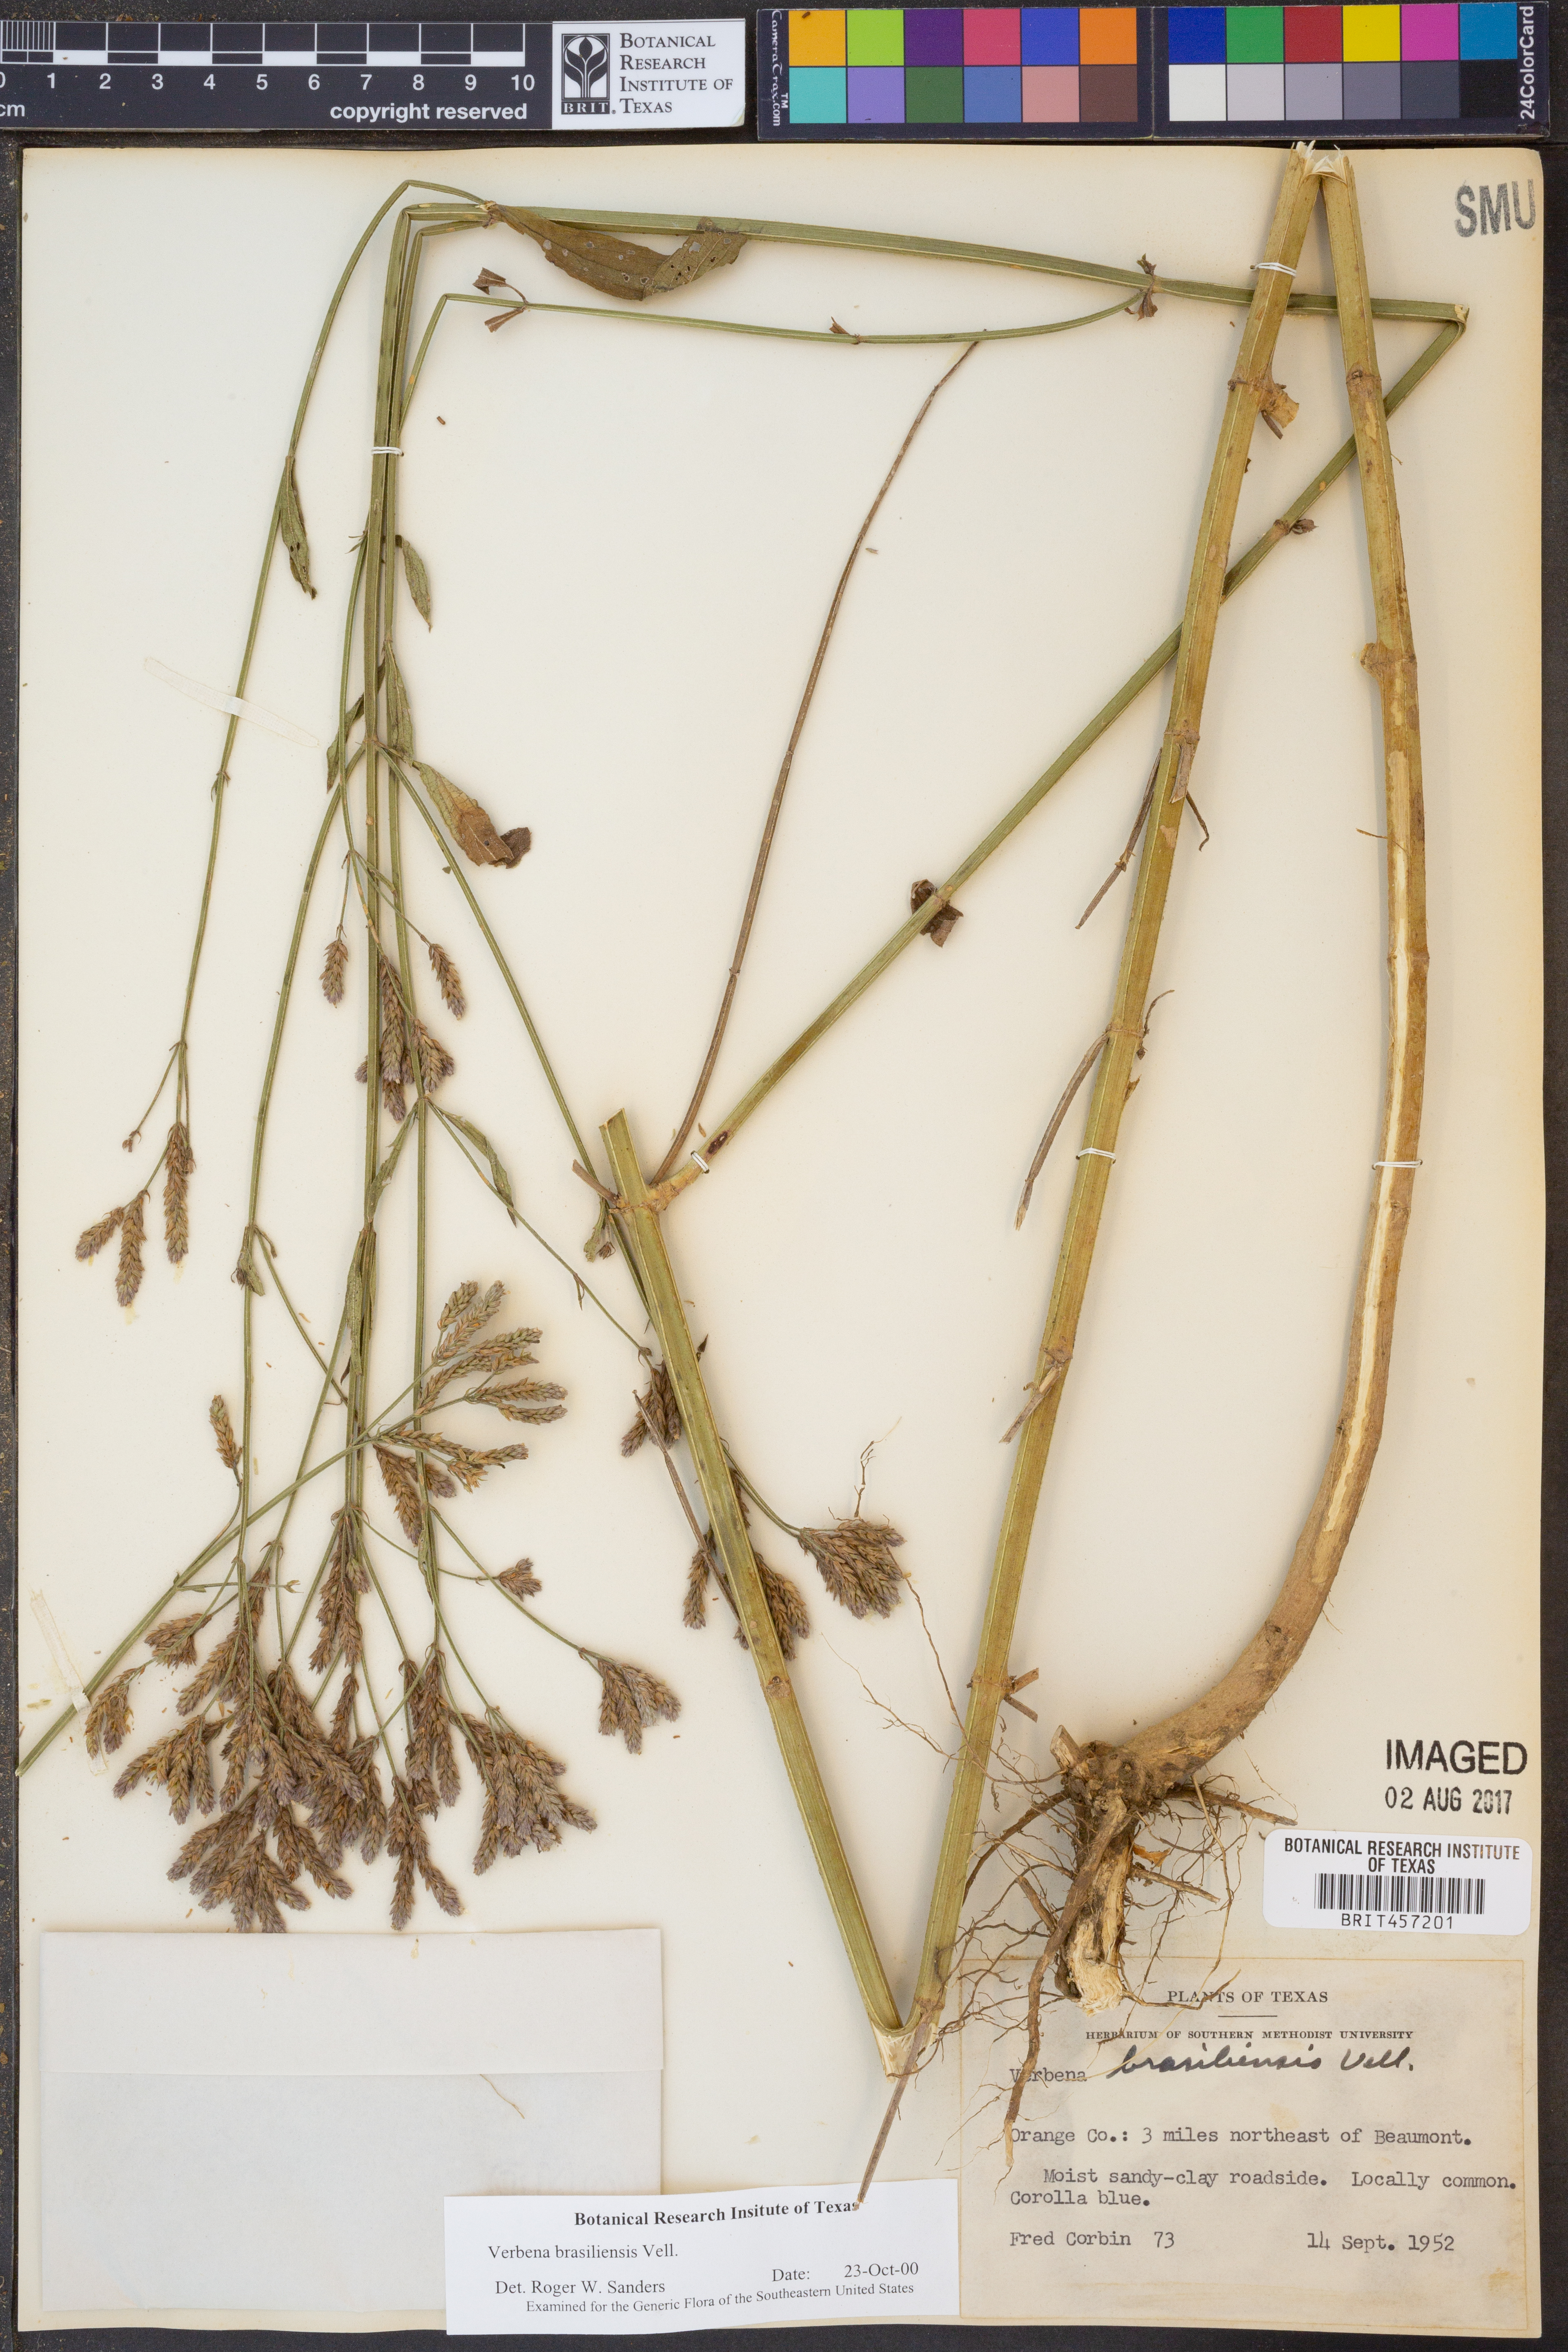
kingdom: Plantae
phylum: Tracheophyta
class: Magnoliopsida
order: Lamiales
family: Verbenaceae
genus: Verbena
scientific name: Verbena brasiliensis
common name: Brazilian vervain
